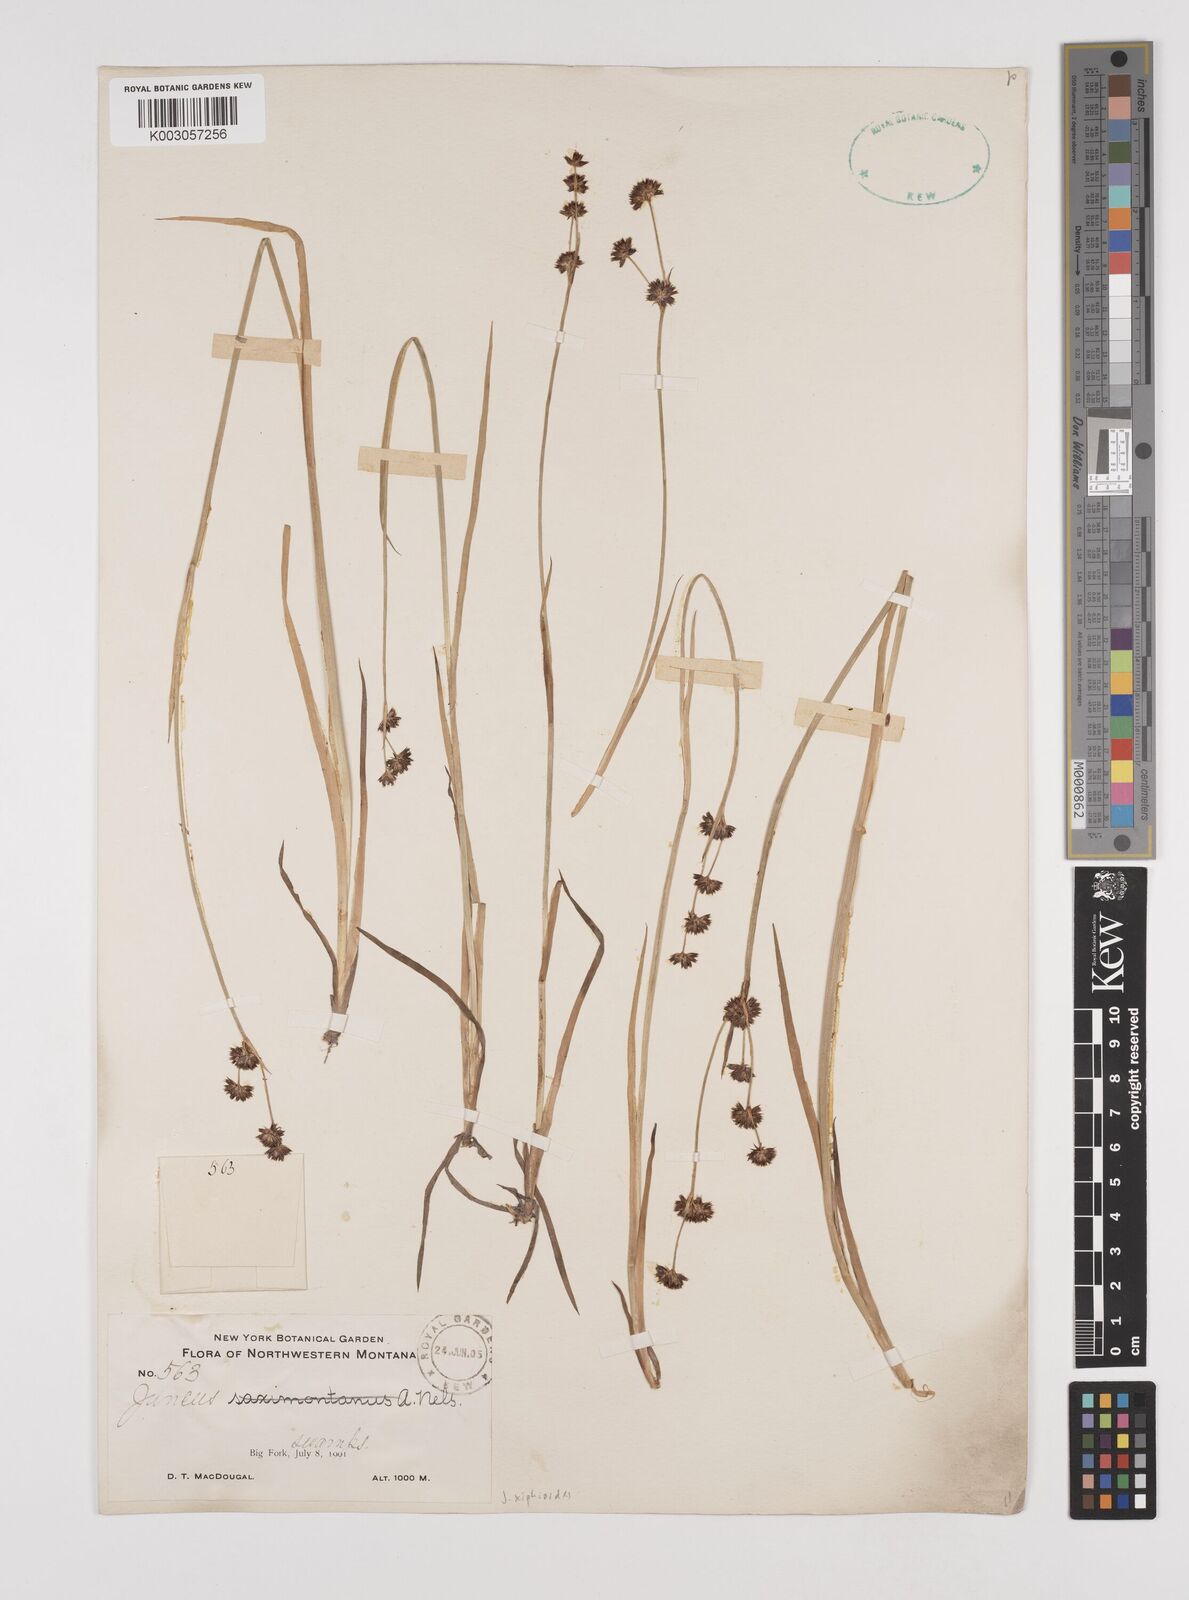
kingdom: Plantae
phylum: Tracheophyta
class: Liliopsida
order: Poales
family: Juncaceae
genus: Juncus
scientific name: Juncus xiphioides
